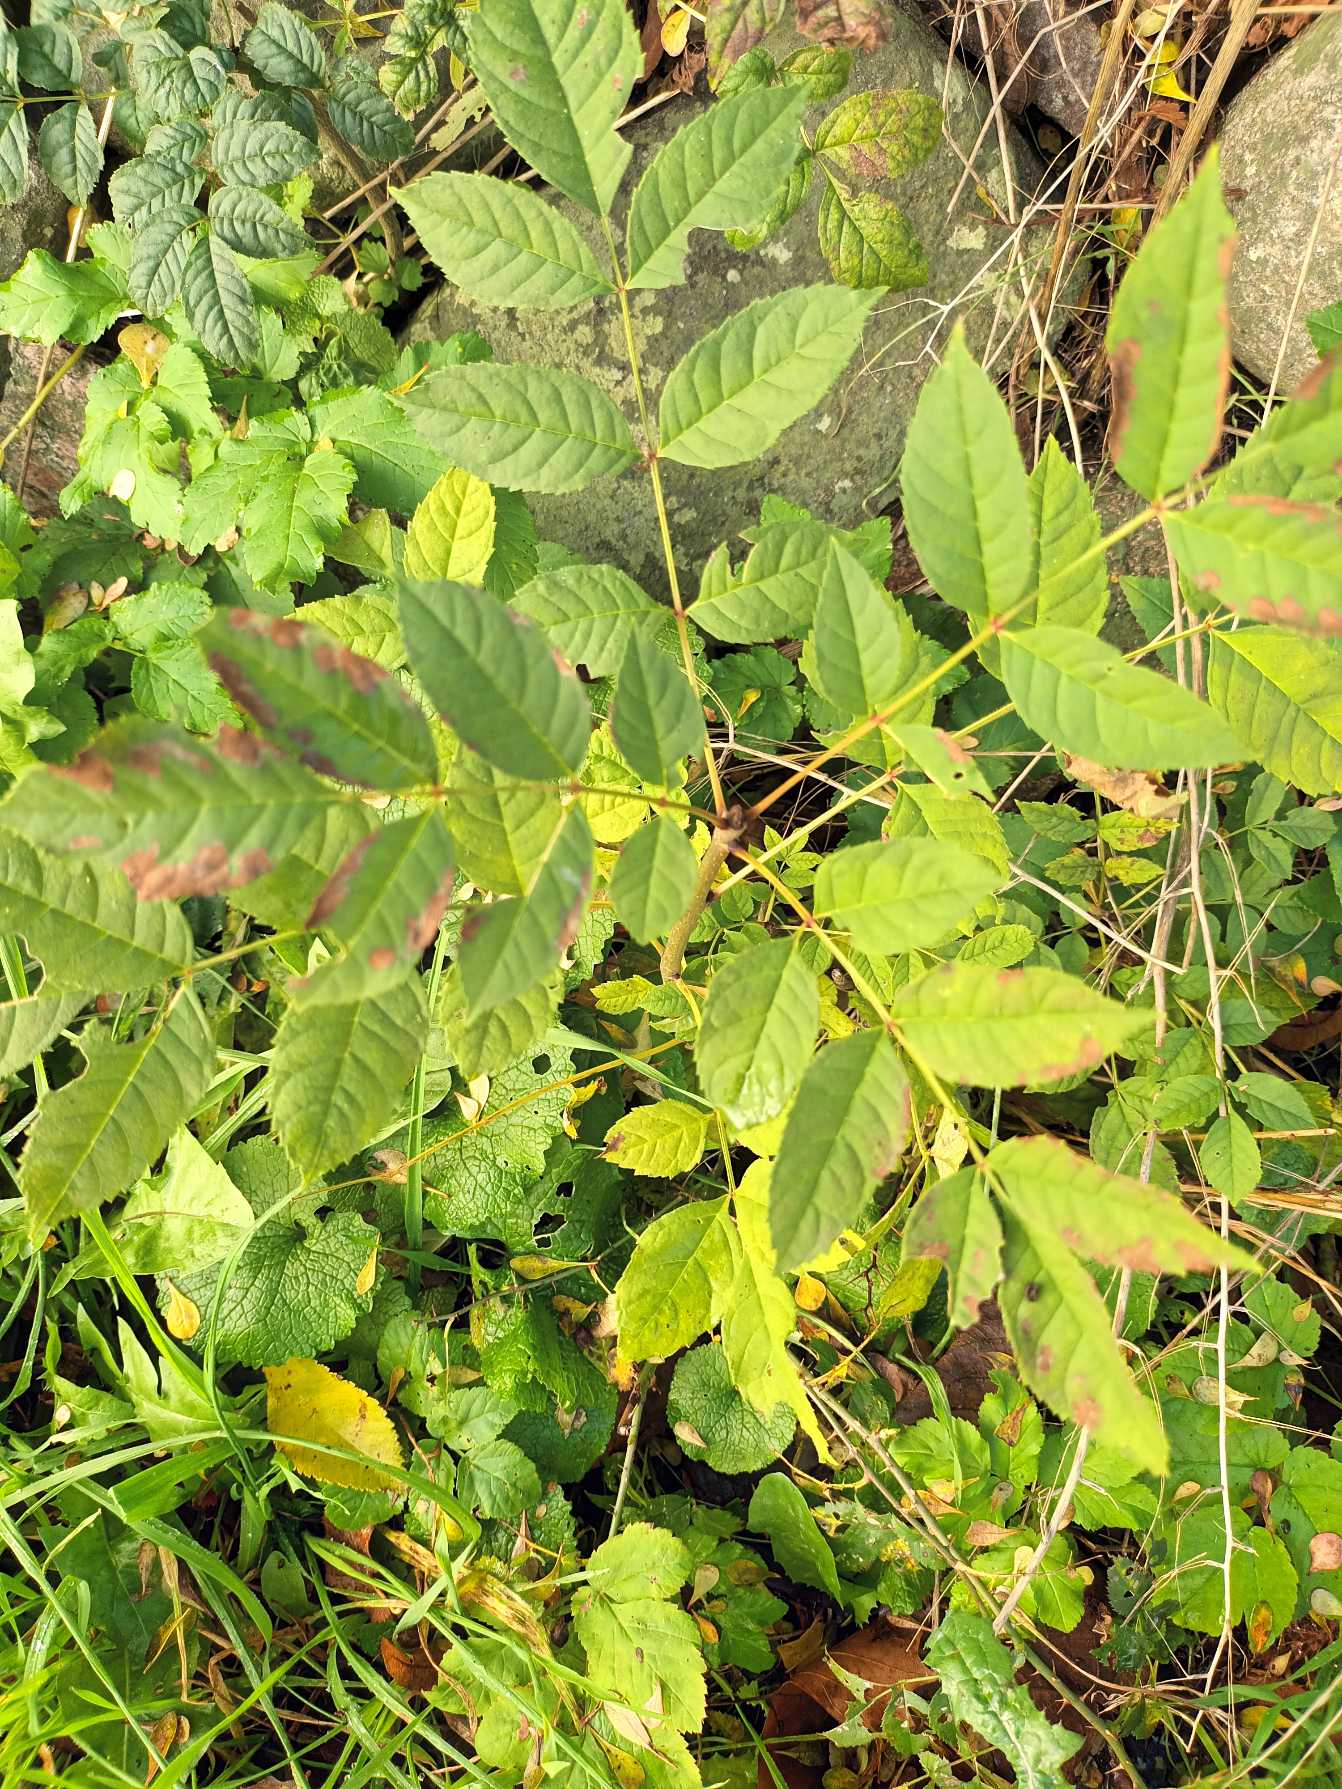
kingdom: Plantae
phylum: Tracheophyta
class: Magnoliopsida
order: Lamiales
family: Oleaceae
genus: Fraxinus
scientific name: Fraxinus excelsior
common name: Ask
